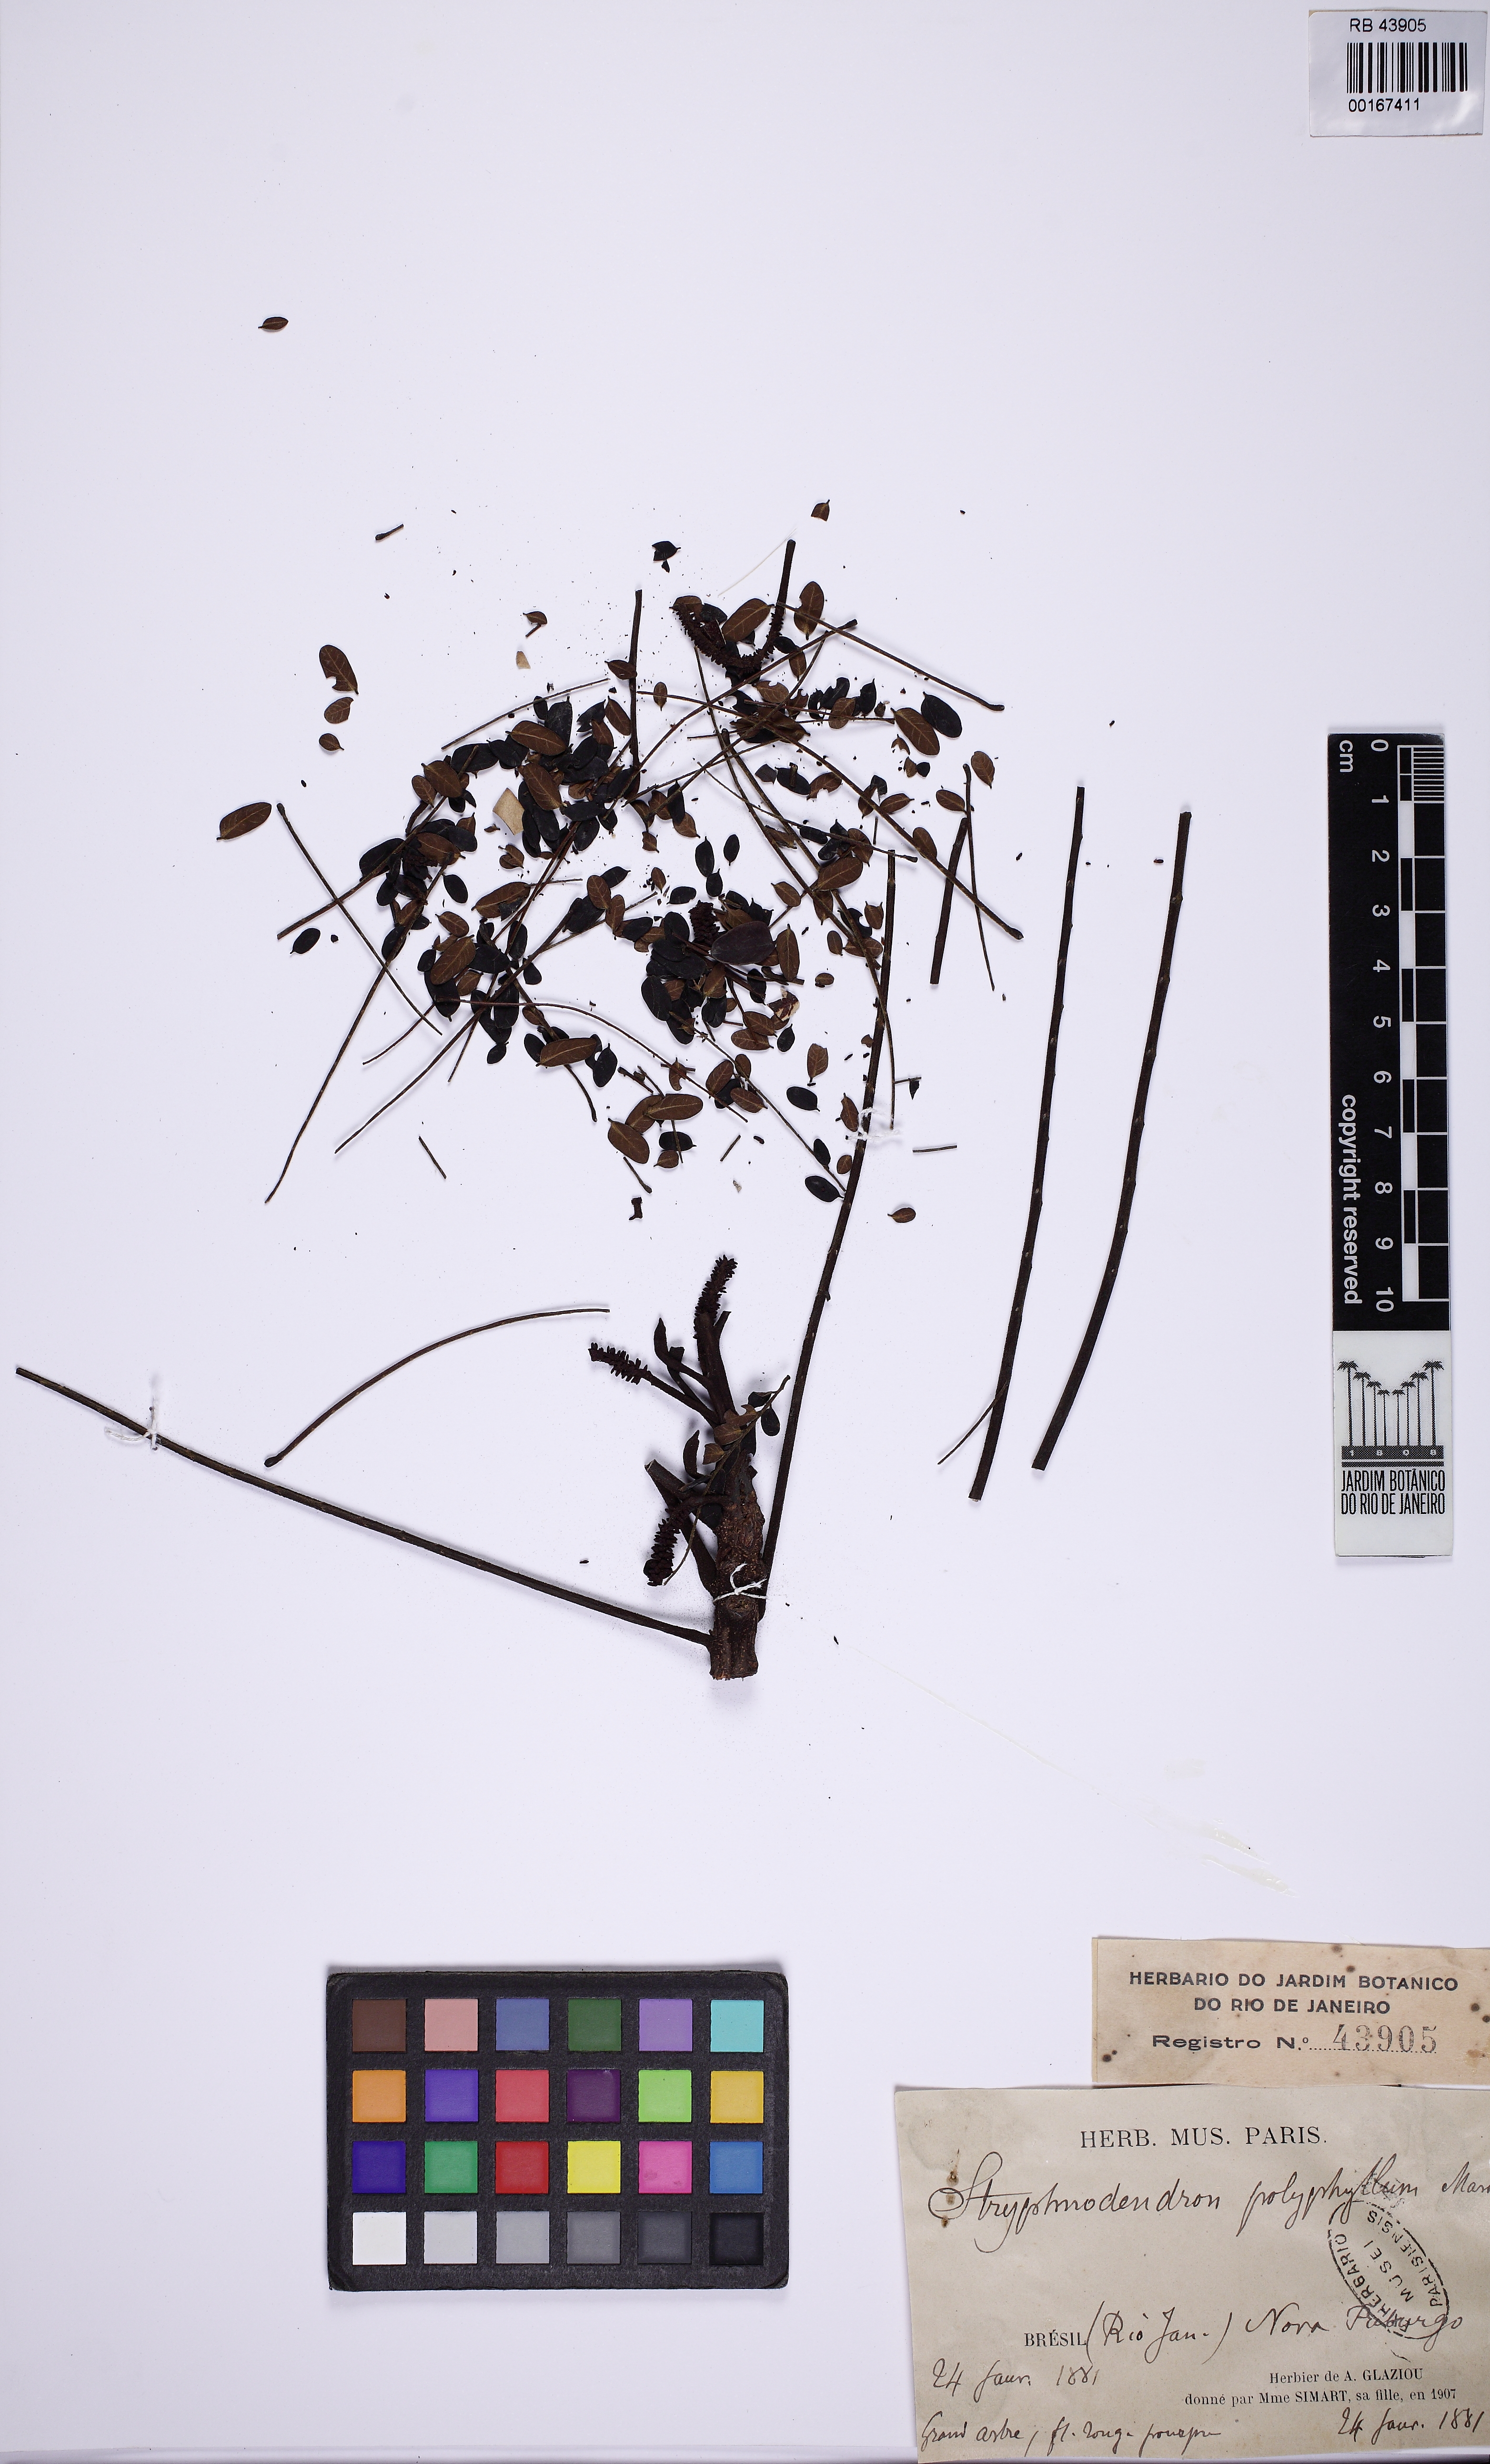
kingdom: Plantae
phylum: Tracheophyta
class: Magnoliopsida
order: Fabales
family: Fabaceae
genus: Stryphnodendron
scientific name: Stryphnodendron polyphyllum
